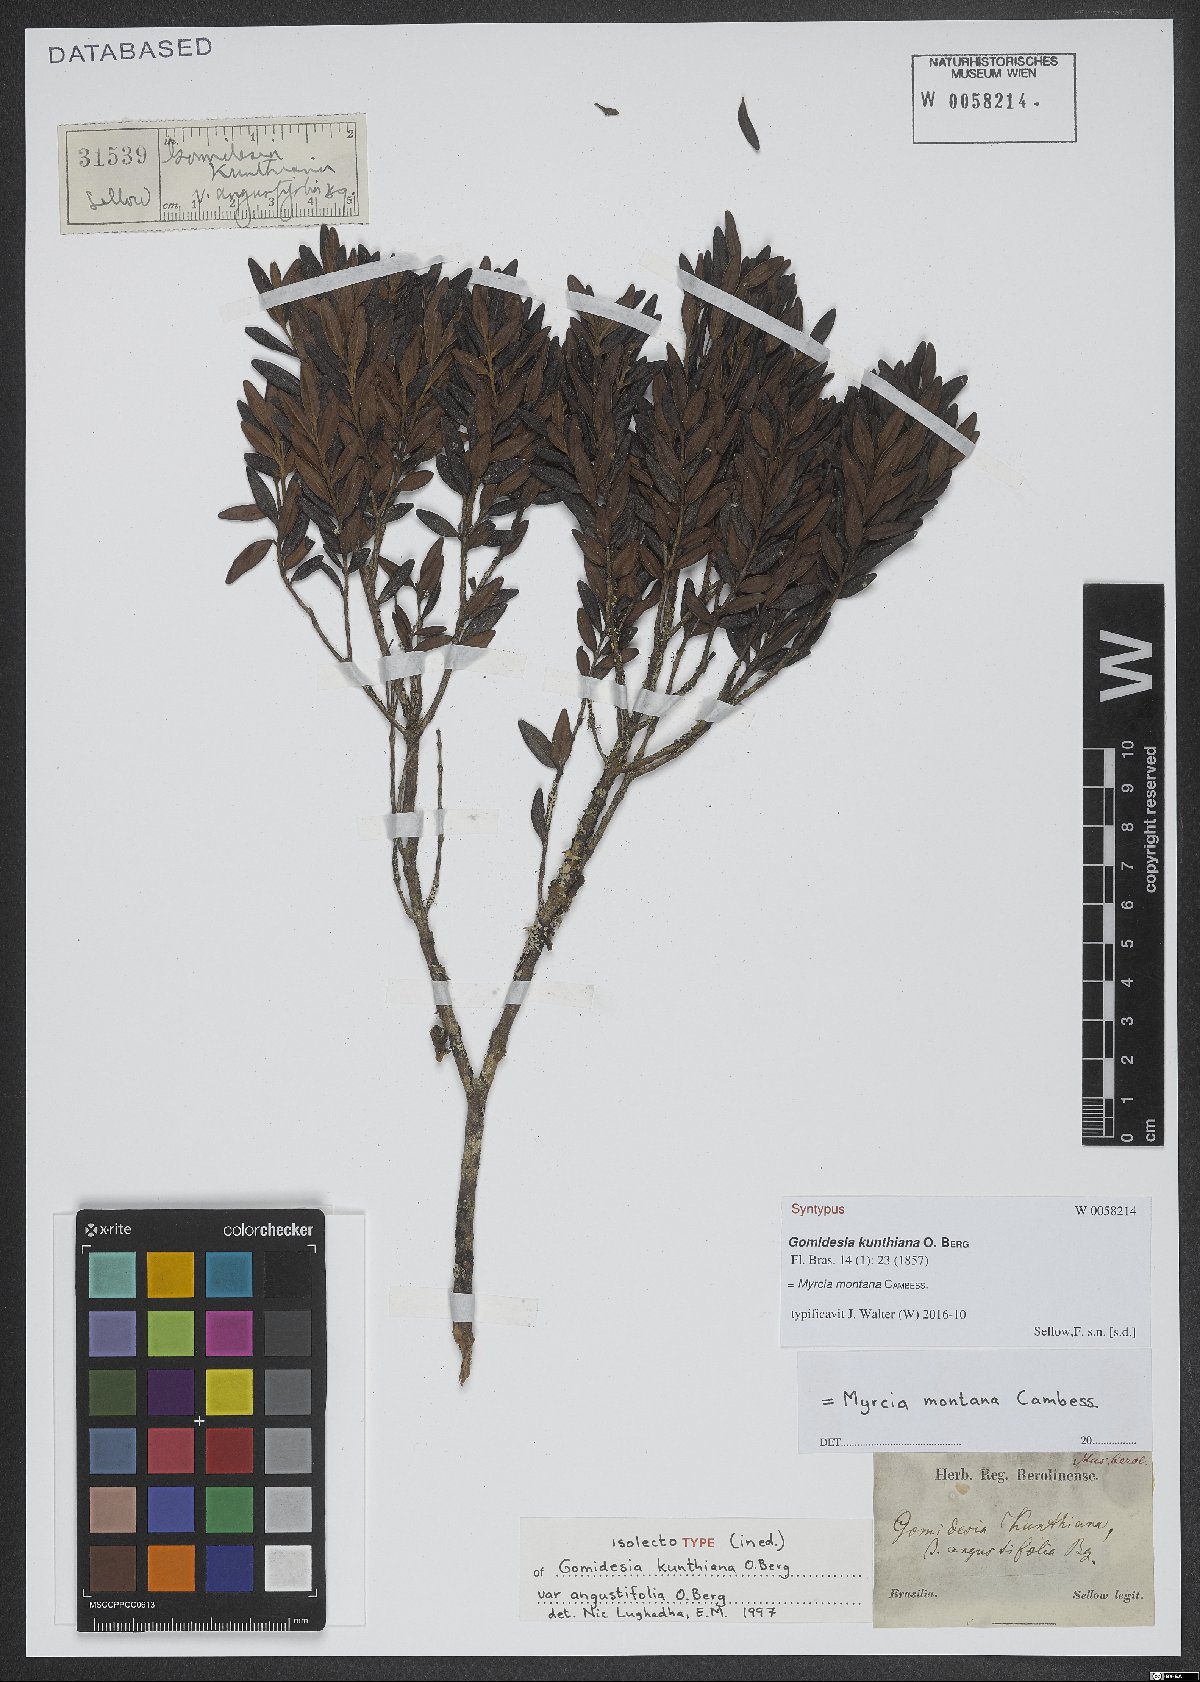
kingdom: Plantae
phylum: Tracheophyta
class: Magnoliopsida
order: Myrtales
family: Myrtaceae
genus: Myrcia
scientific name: Myrcia montana
